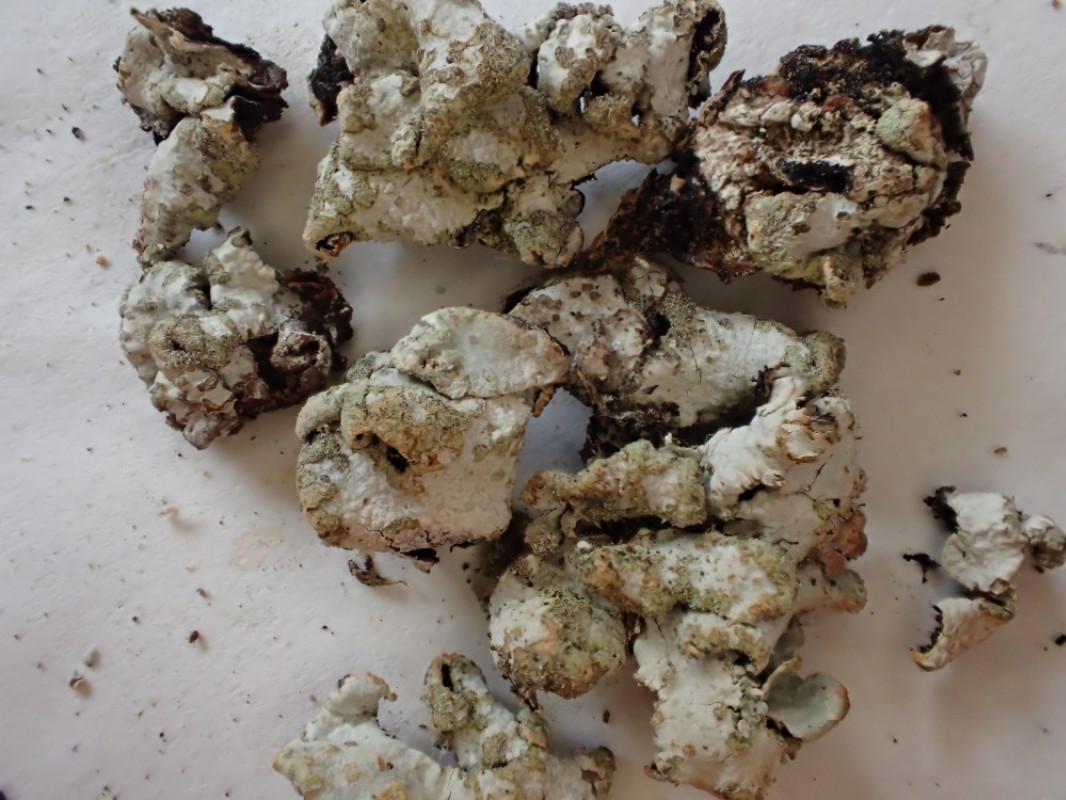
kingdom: Fungi
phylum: Ascomycota
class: Lecanoromycetes
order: Lecanorales
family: Parmeliaceae
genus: Parmelia
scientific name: Parmelia sulcata
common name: rynket skållav
